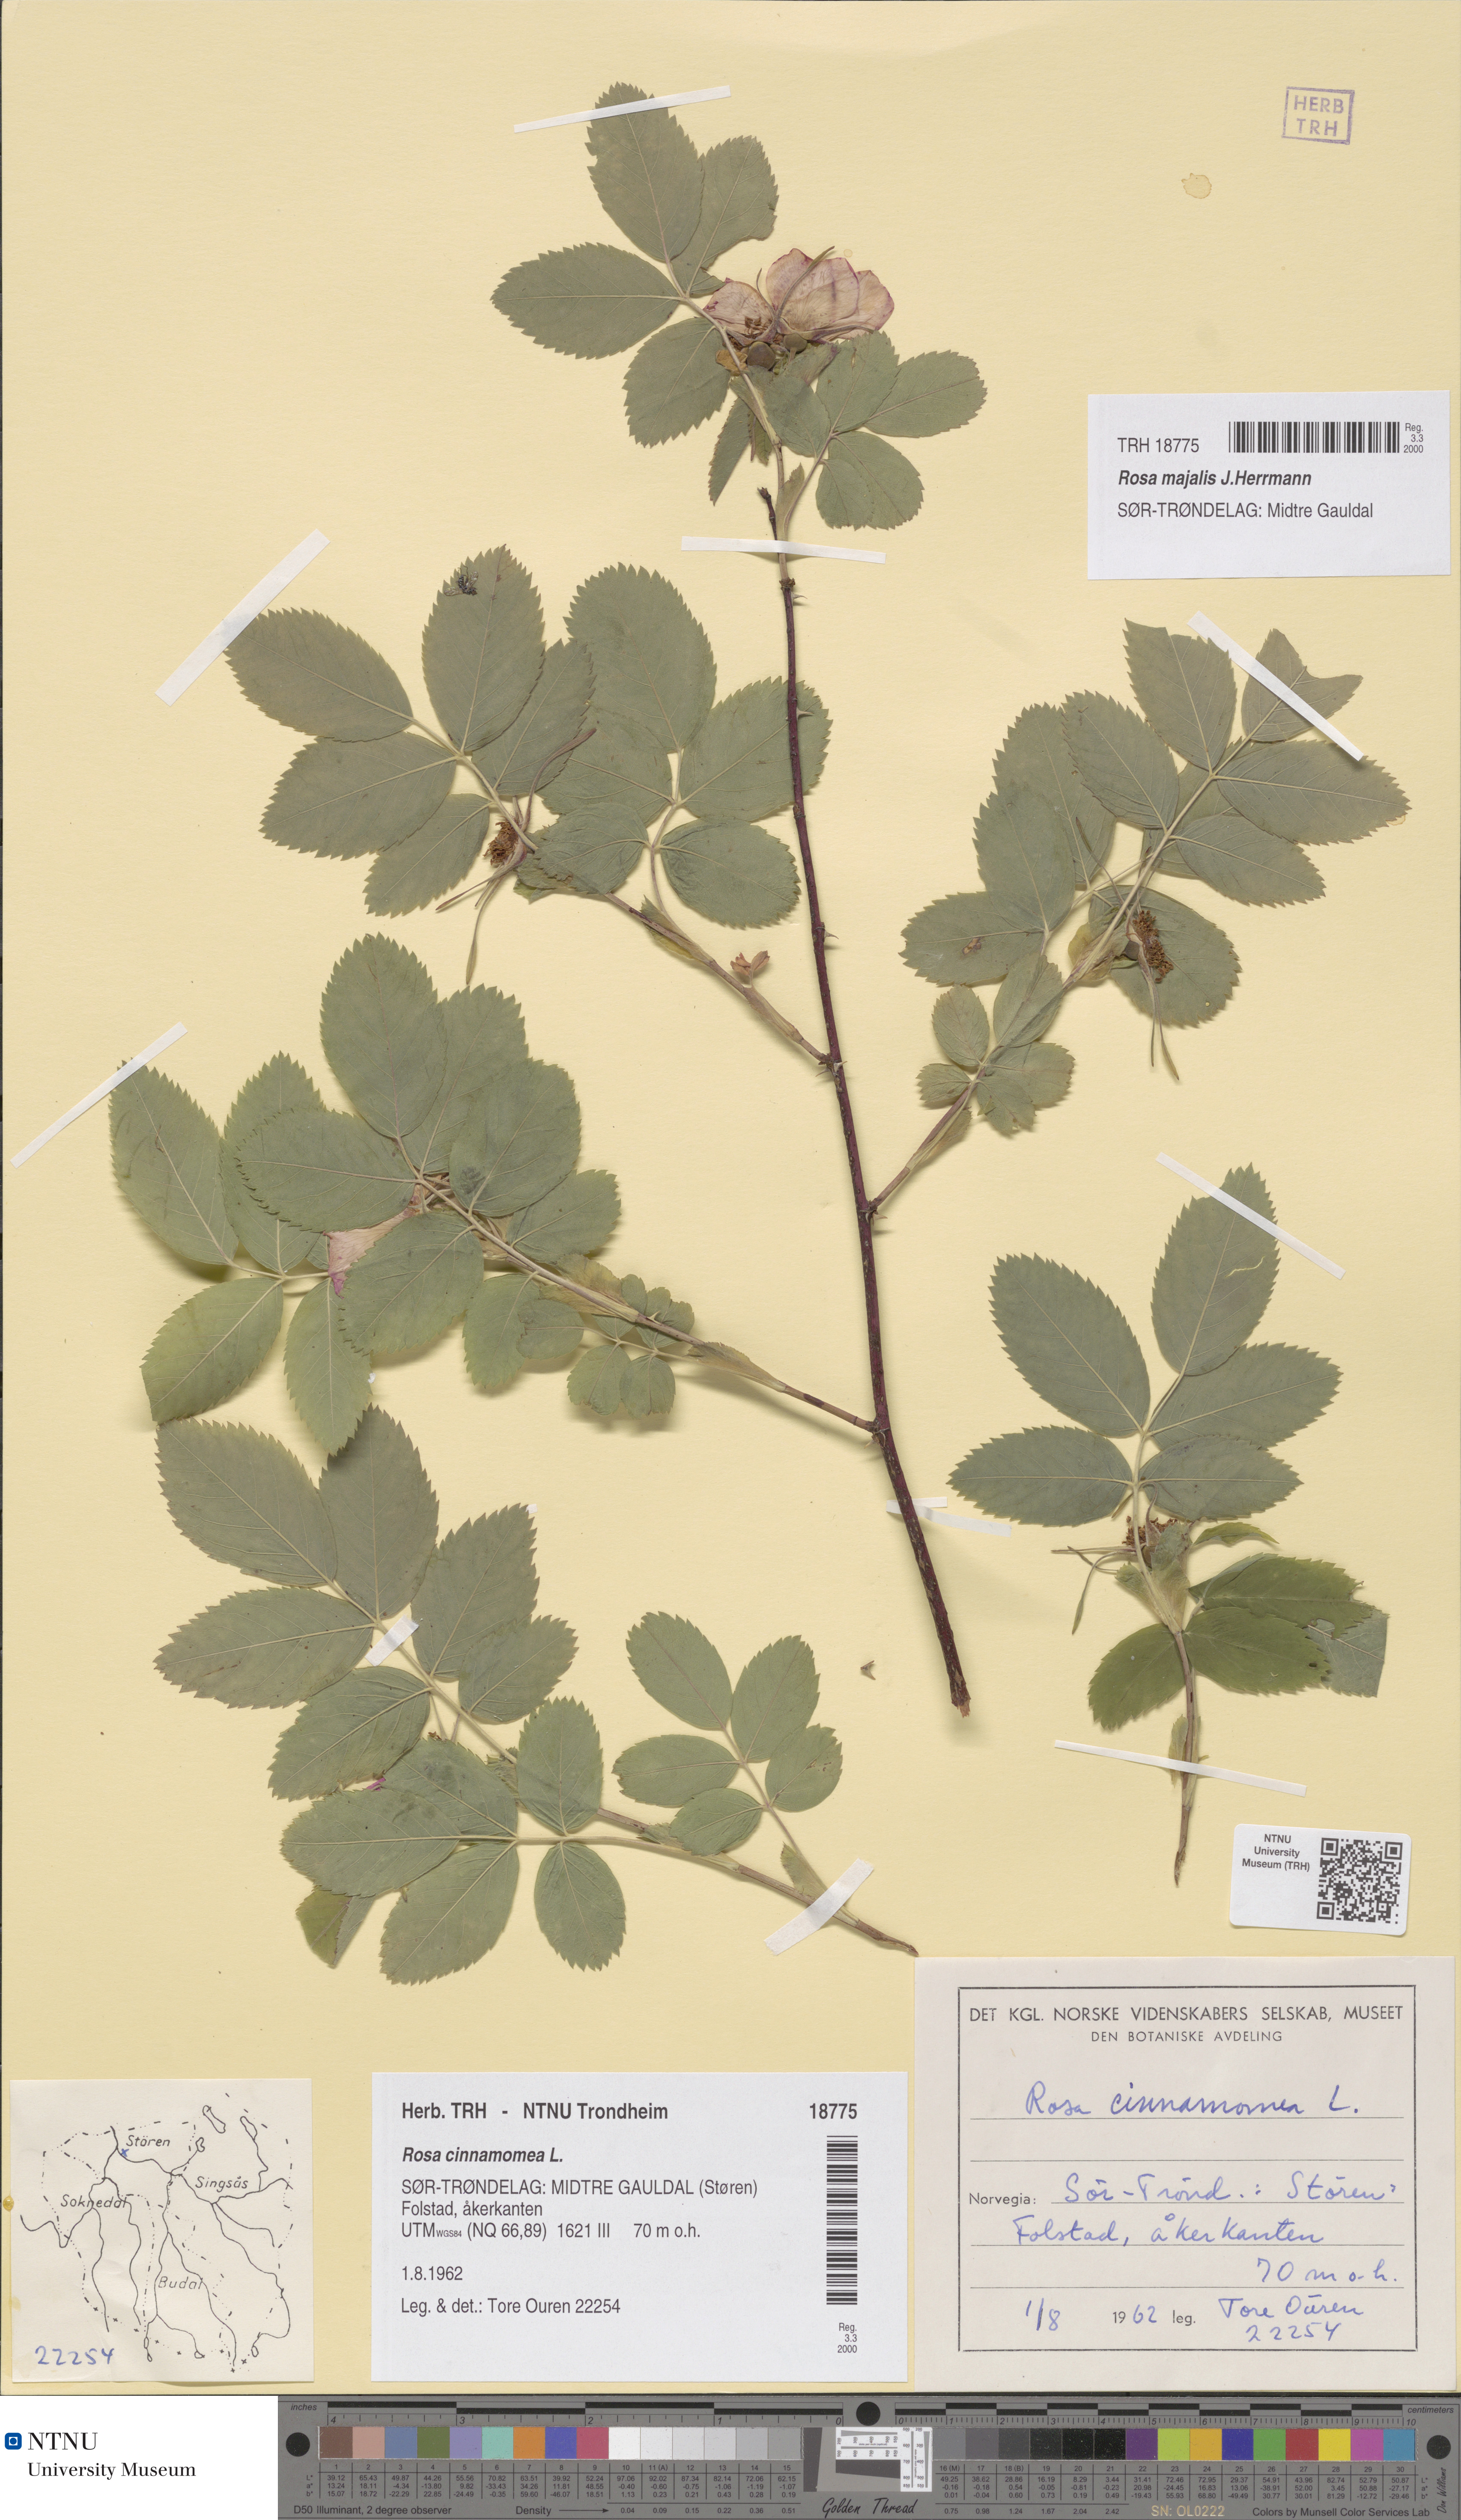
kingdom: Plantae
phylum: Tracheophyta
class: Magnoliopsida
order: Rosales
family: Rosaceae
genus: Rosa
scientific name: Rosa pendulina
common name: Alpine rose
